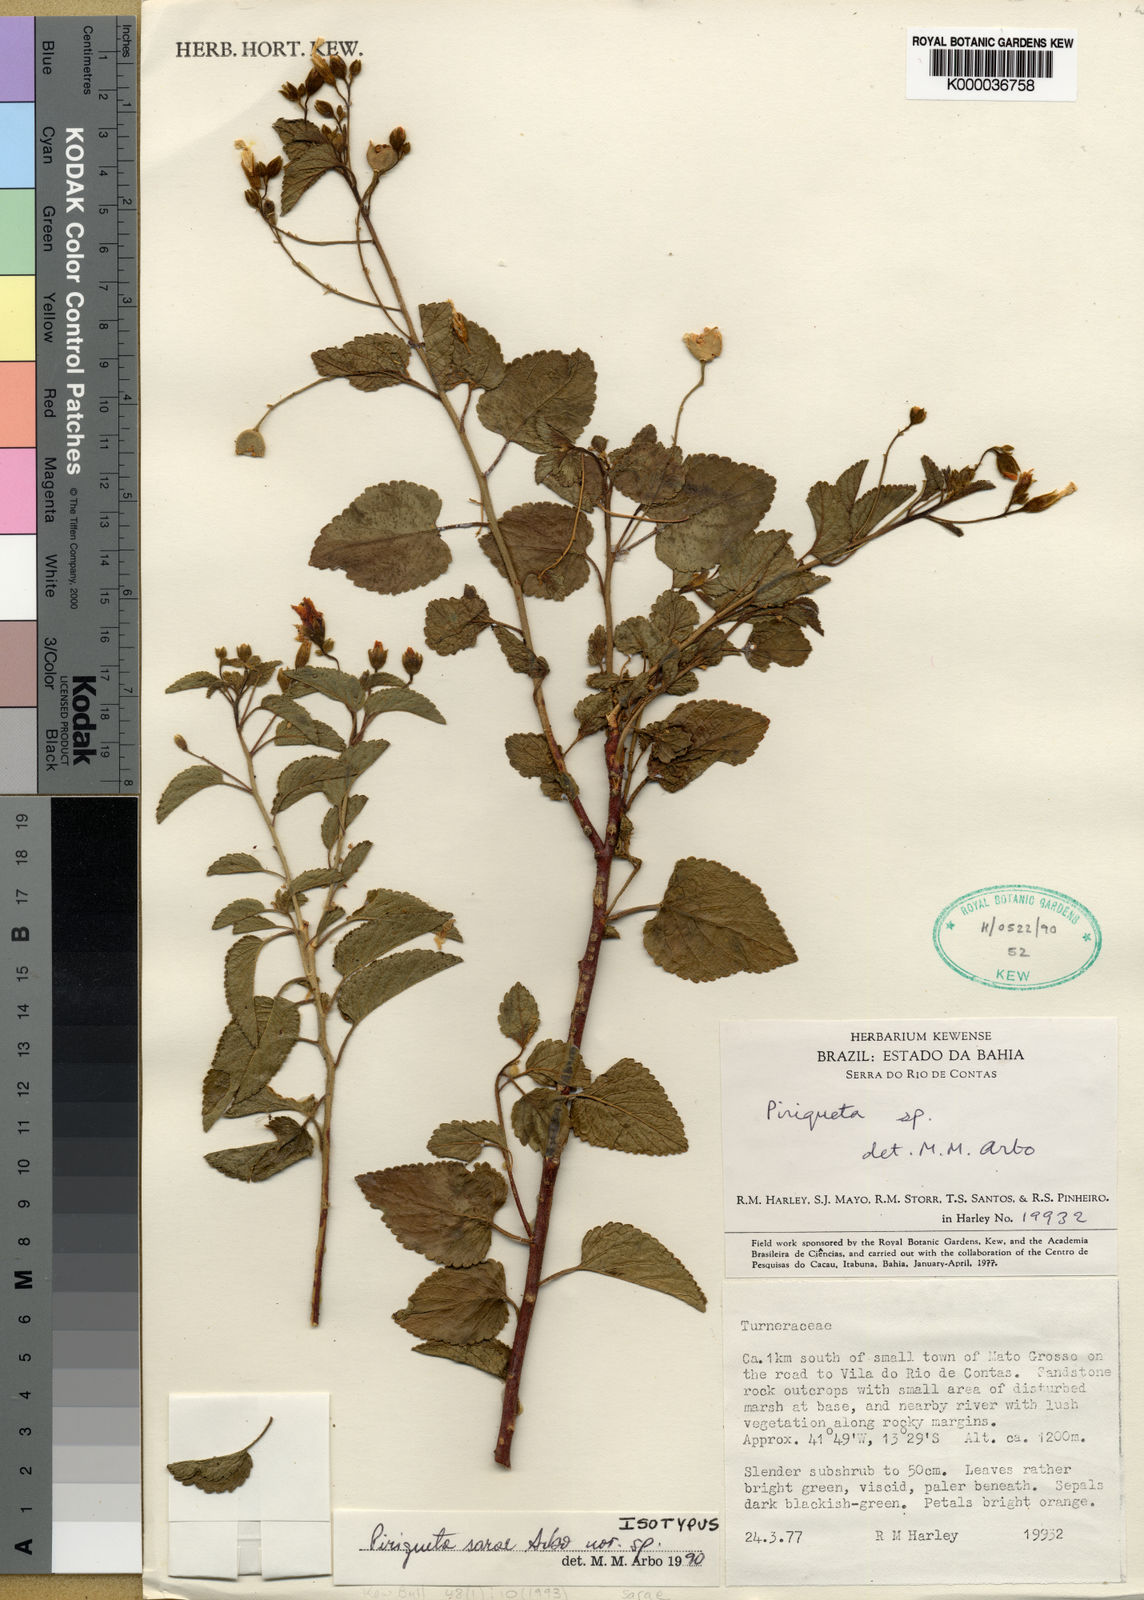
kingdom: Plantae
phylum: Tracheophyta
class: Magnoliopsida
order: Malpighiales
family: Turneraceae
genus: Piriqueta
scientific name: Piriqueta
